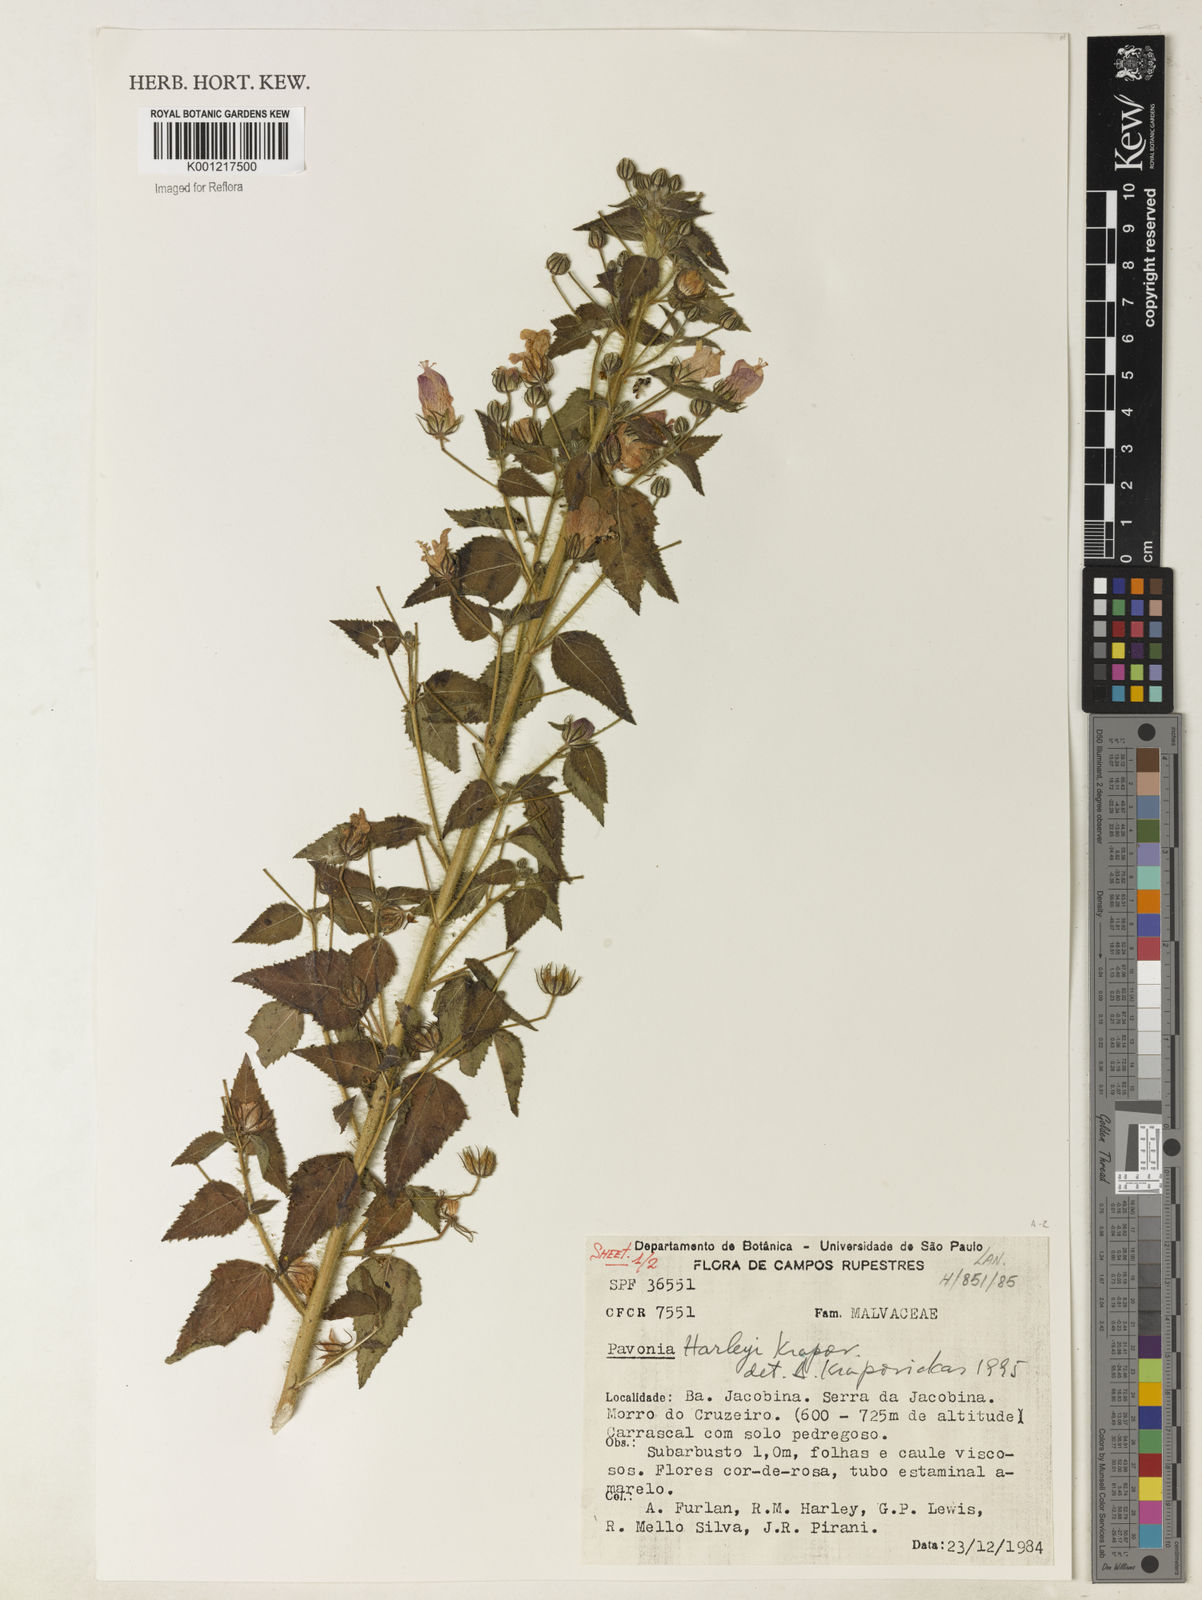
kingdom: Plantae
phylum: Tracheophyta
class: Magnoliopsida
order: Malvales
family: Malvaceae
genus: Pavonia
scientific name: Pavonia harleyi
